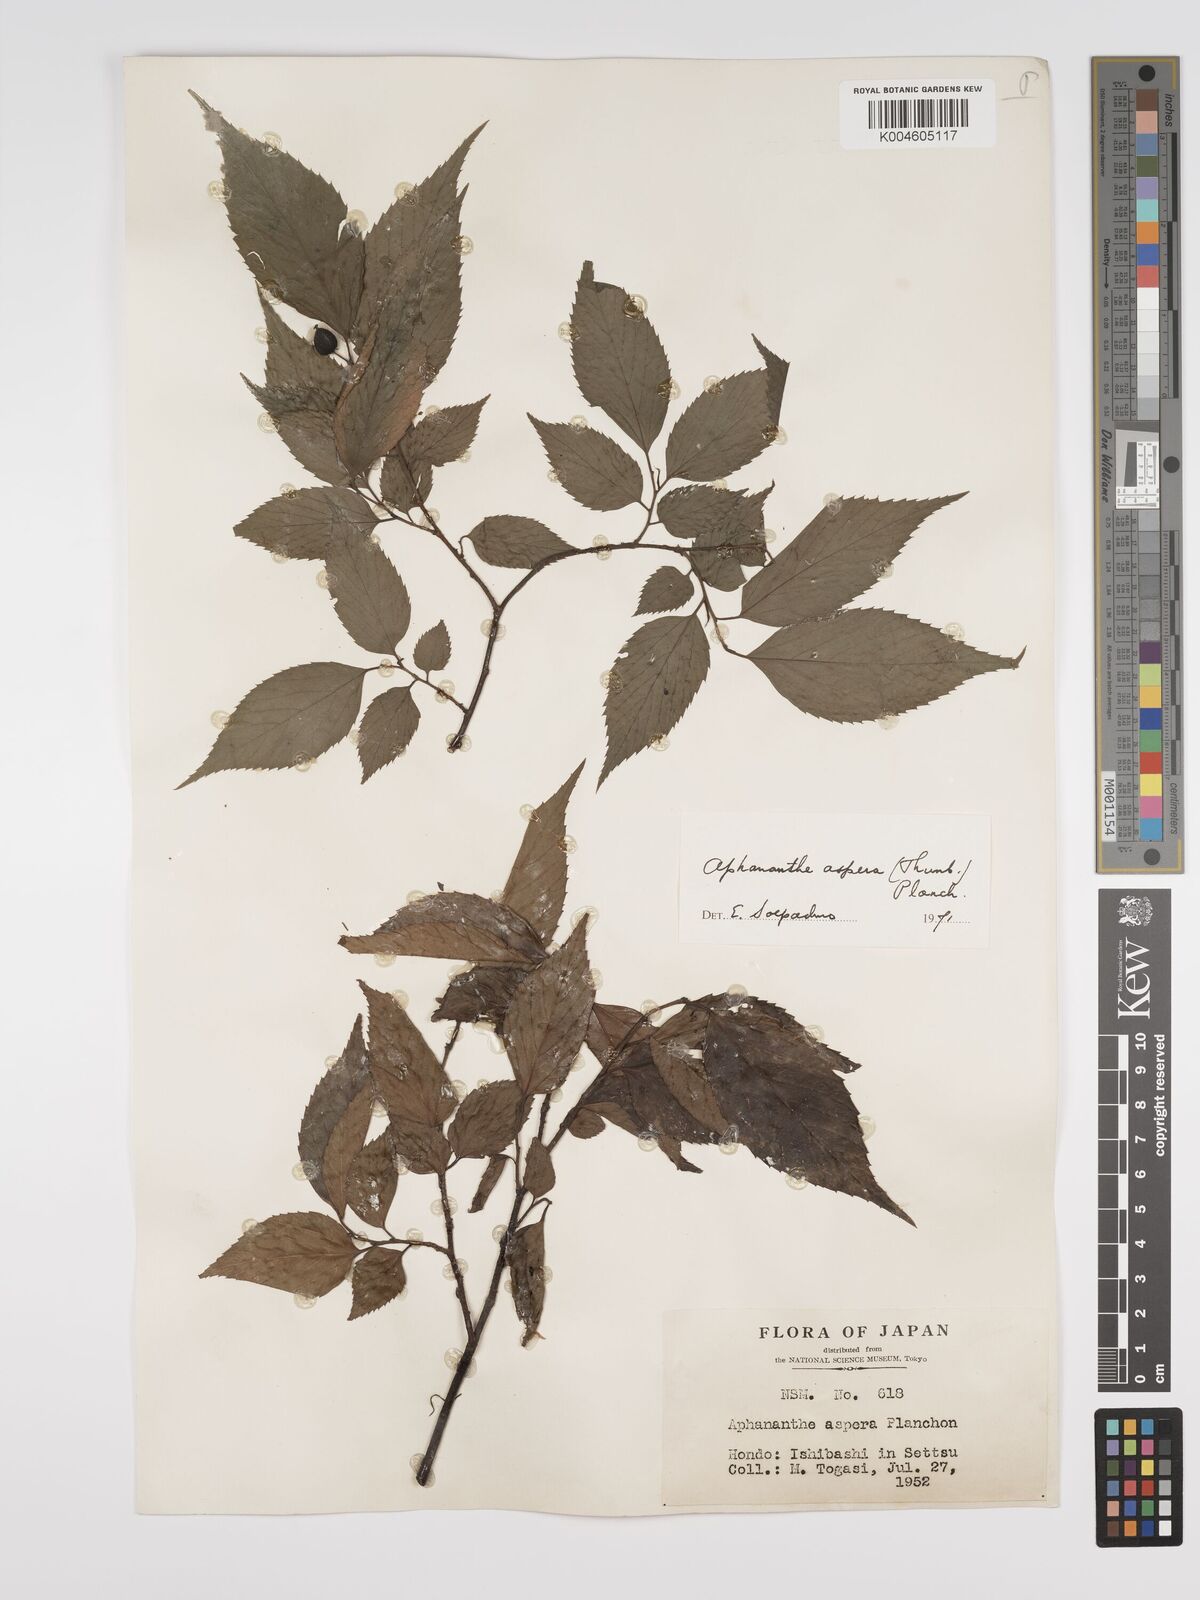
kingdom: Plantae
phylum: Tracheophyta
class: Magnoliopsida
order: Rosales
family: Cannabaceae
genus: Aphananthe
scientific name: Aphananthe aspera
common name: Mukutree
